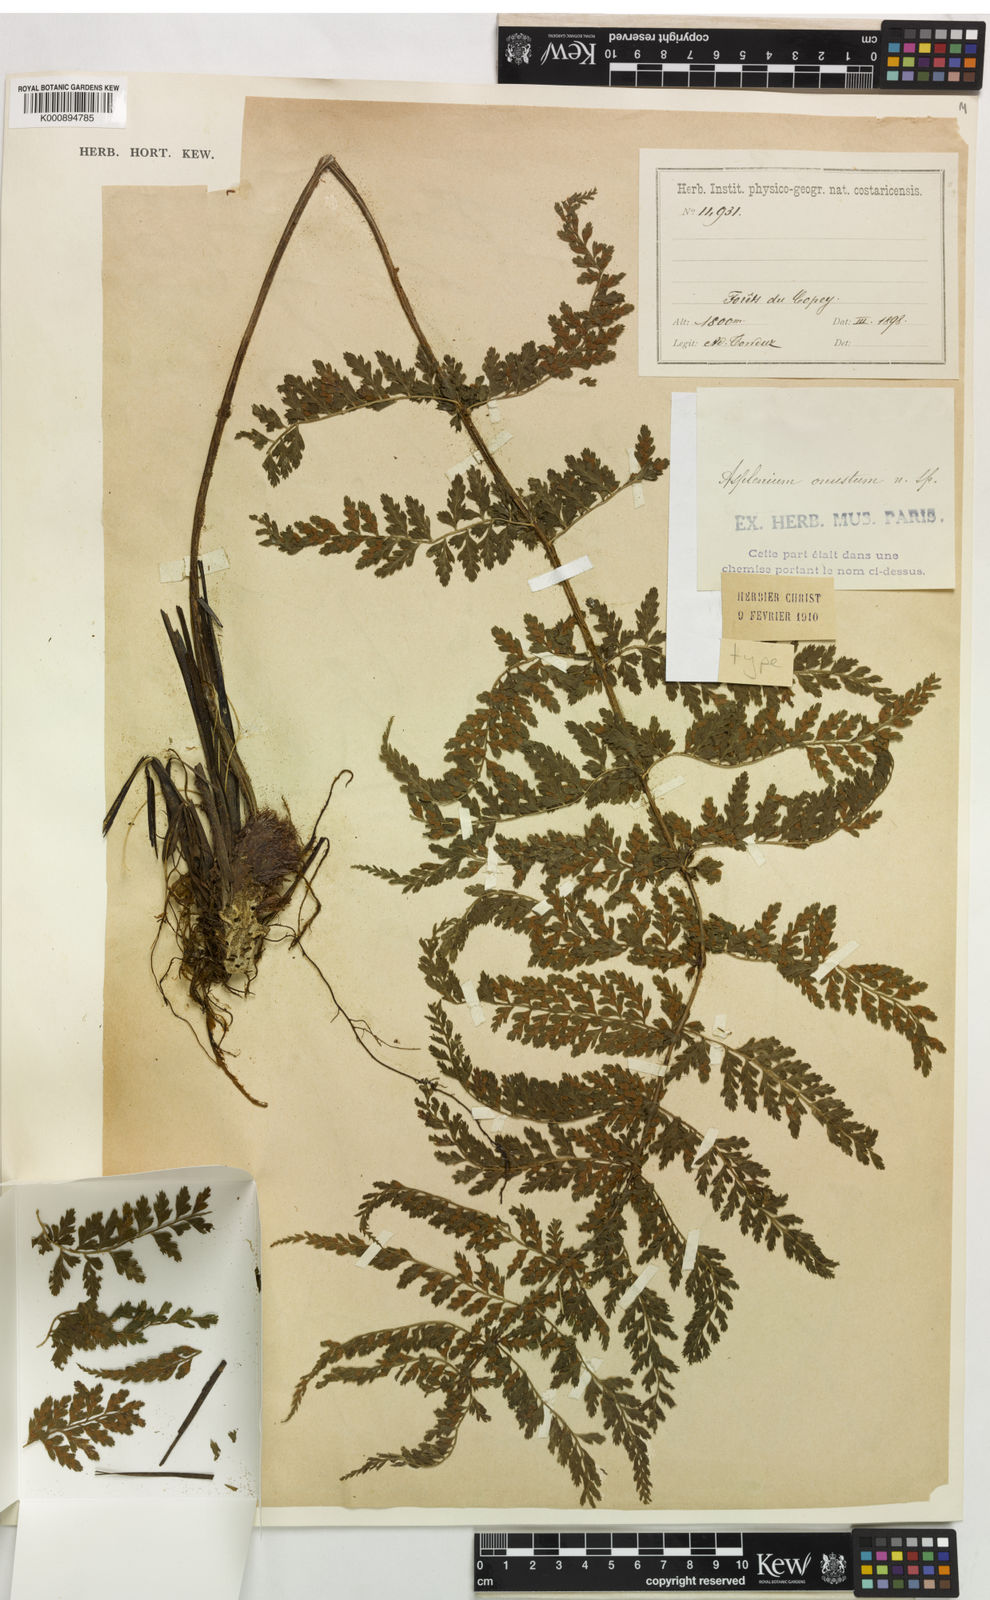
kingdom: Plantae
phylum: Tracheophyta
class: Polypodiopsida
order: Polypodiales
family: Aspleniaceae
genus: Asplenium
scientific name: Asplenium blepharophorum
